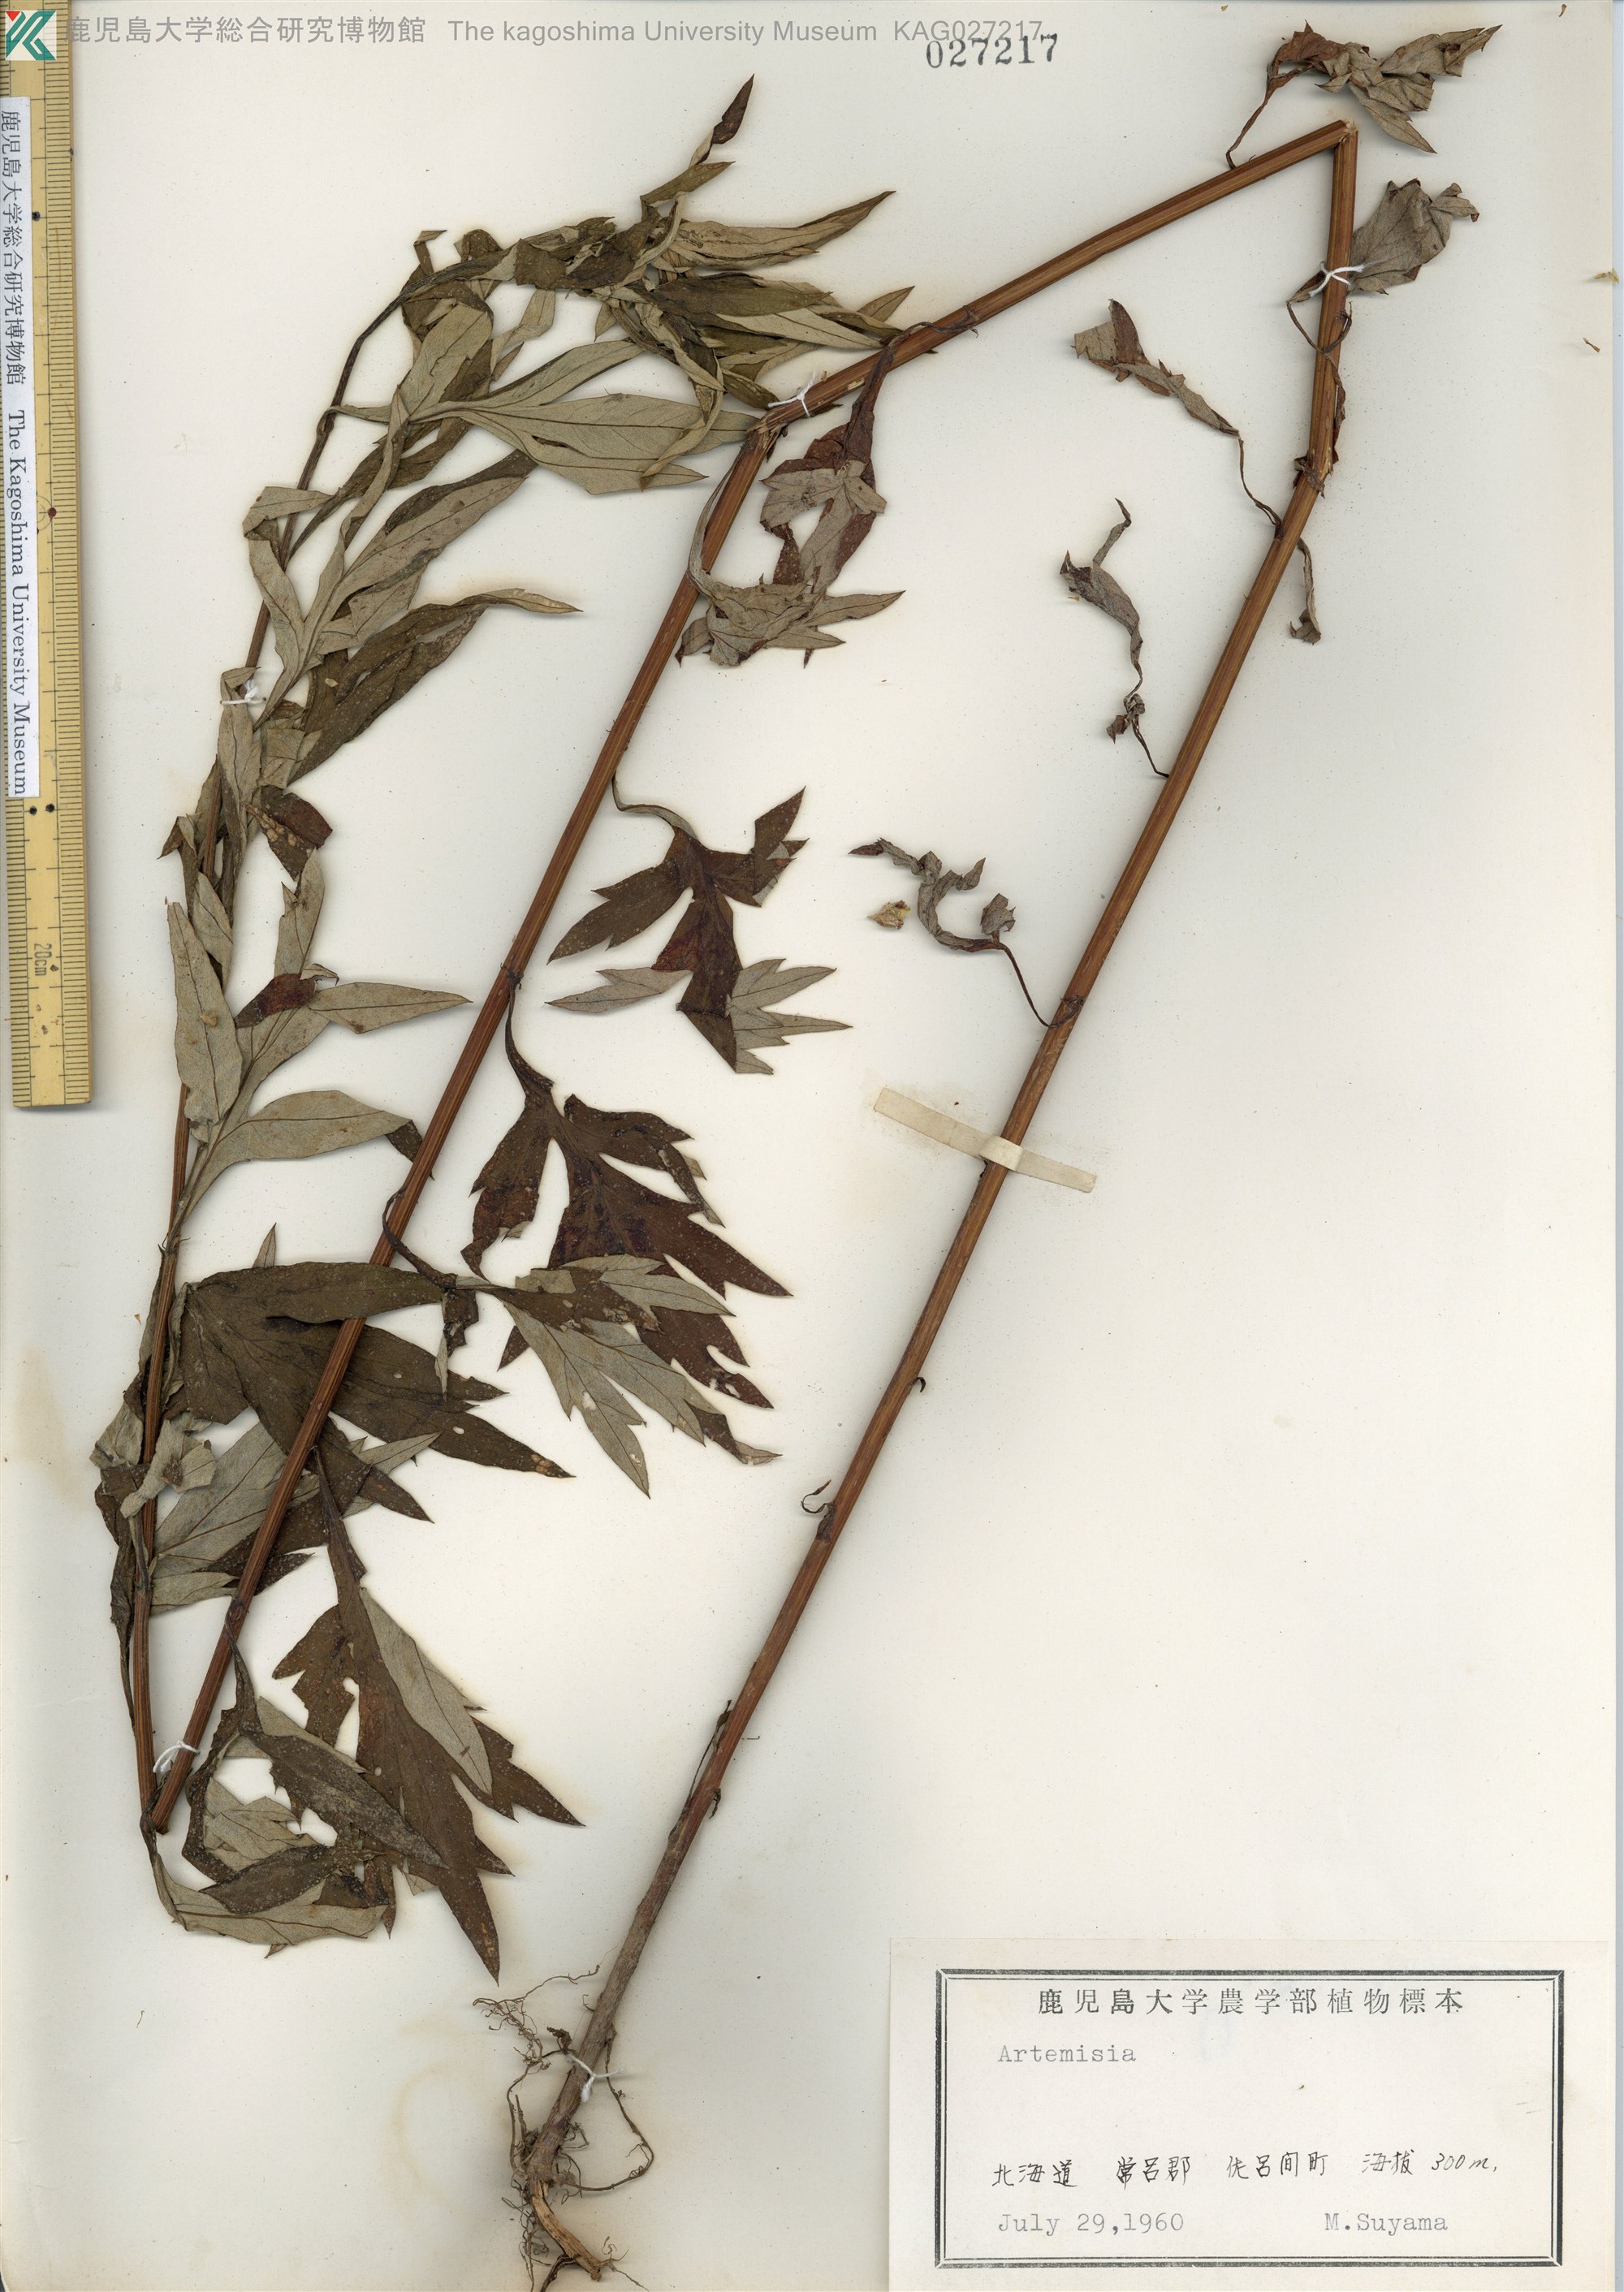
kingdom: Plantae
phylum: Tracheophyta
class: Magnoliopsida
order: Asterales
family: Asteraceae
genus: Artemisia
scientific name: Artemisia montana
